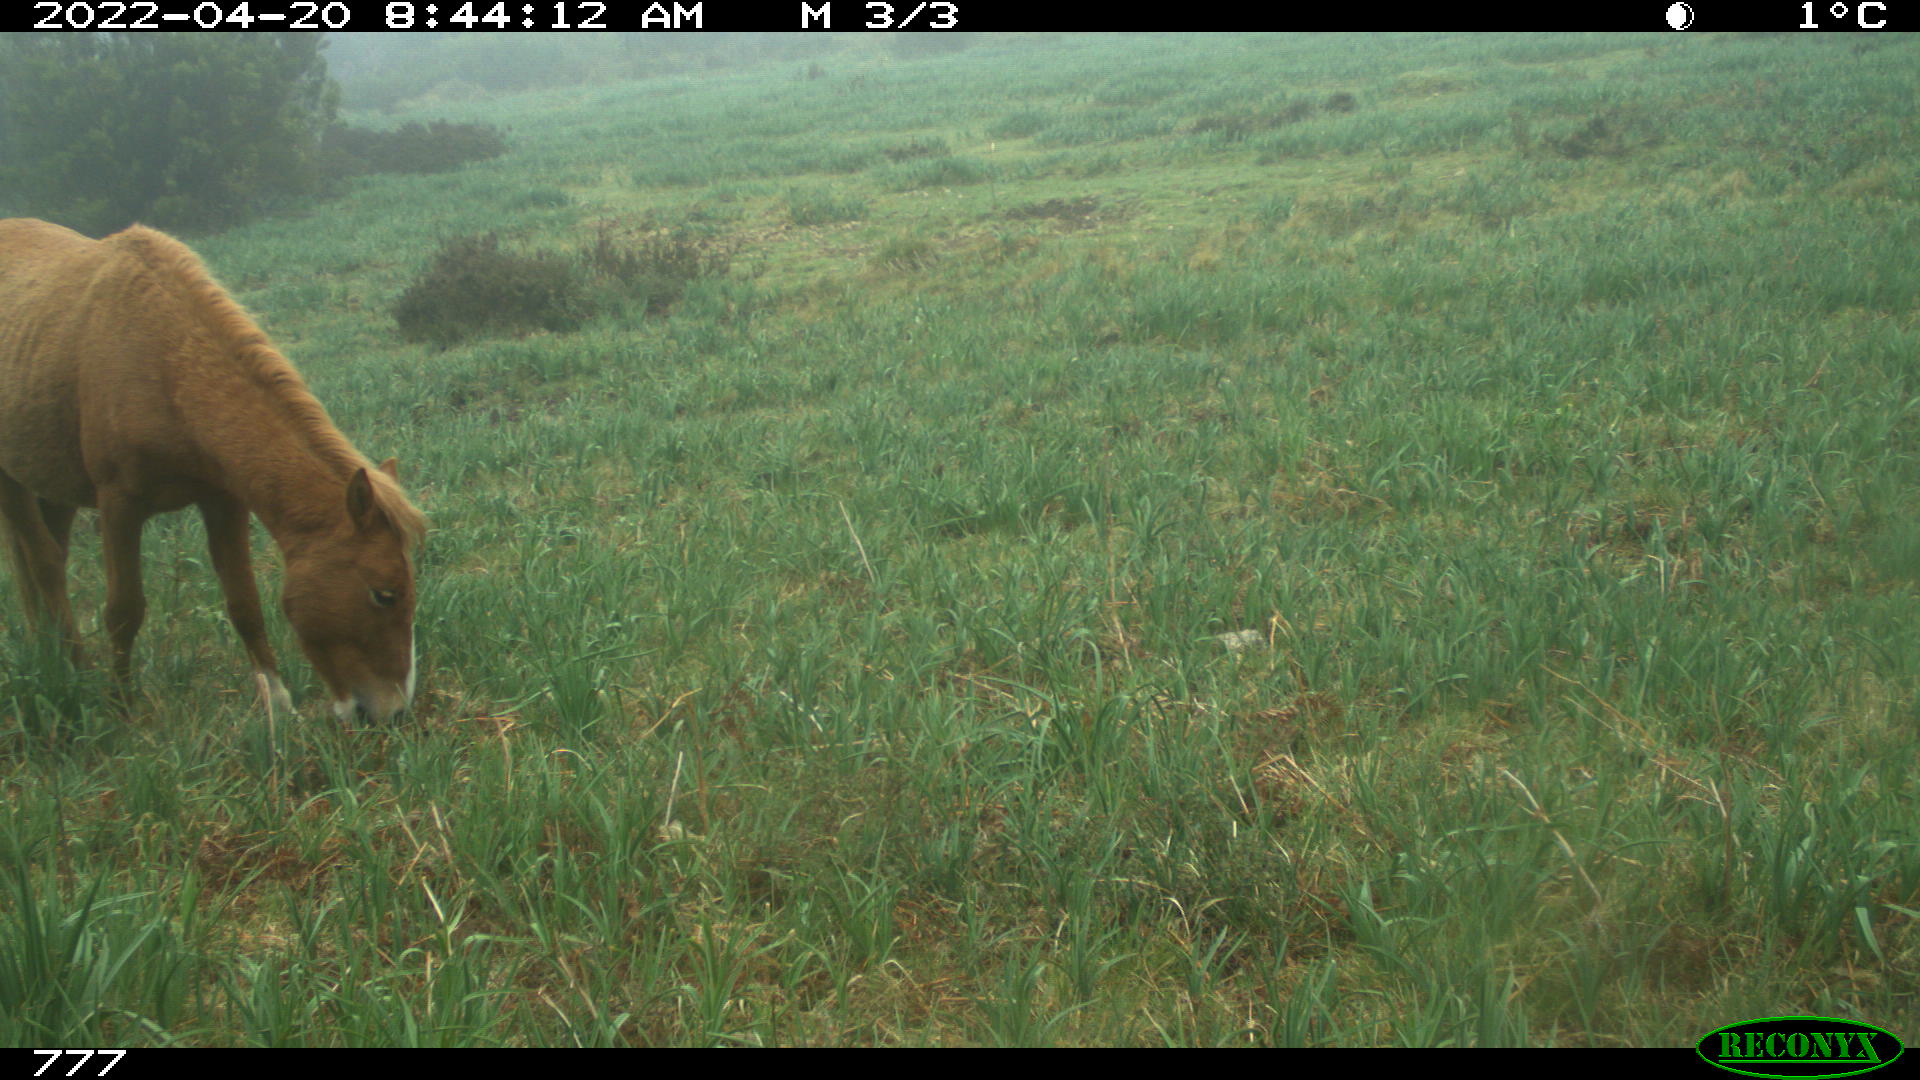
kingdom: Animalia
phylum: Chordata
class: Mammalia
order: Perissodactyla
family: Equidae
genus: Equus
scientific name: Equus caballus
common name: Horse
